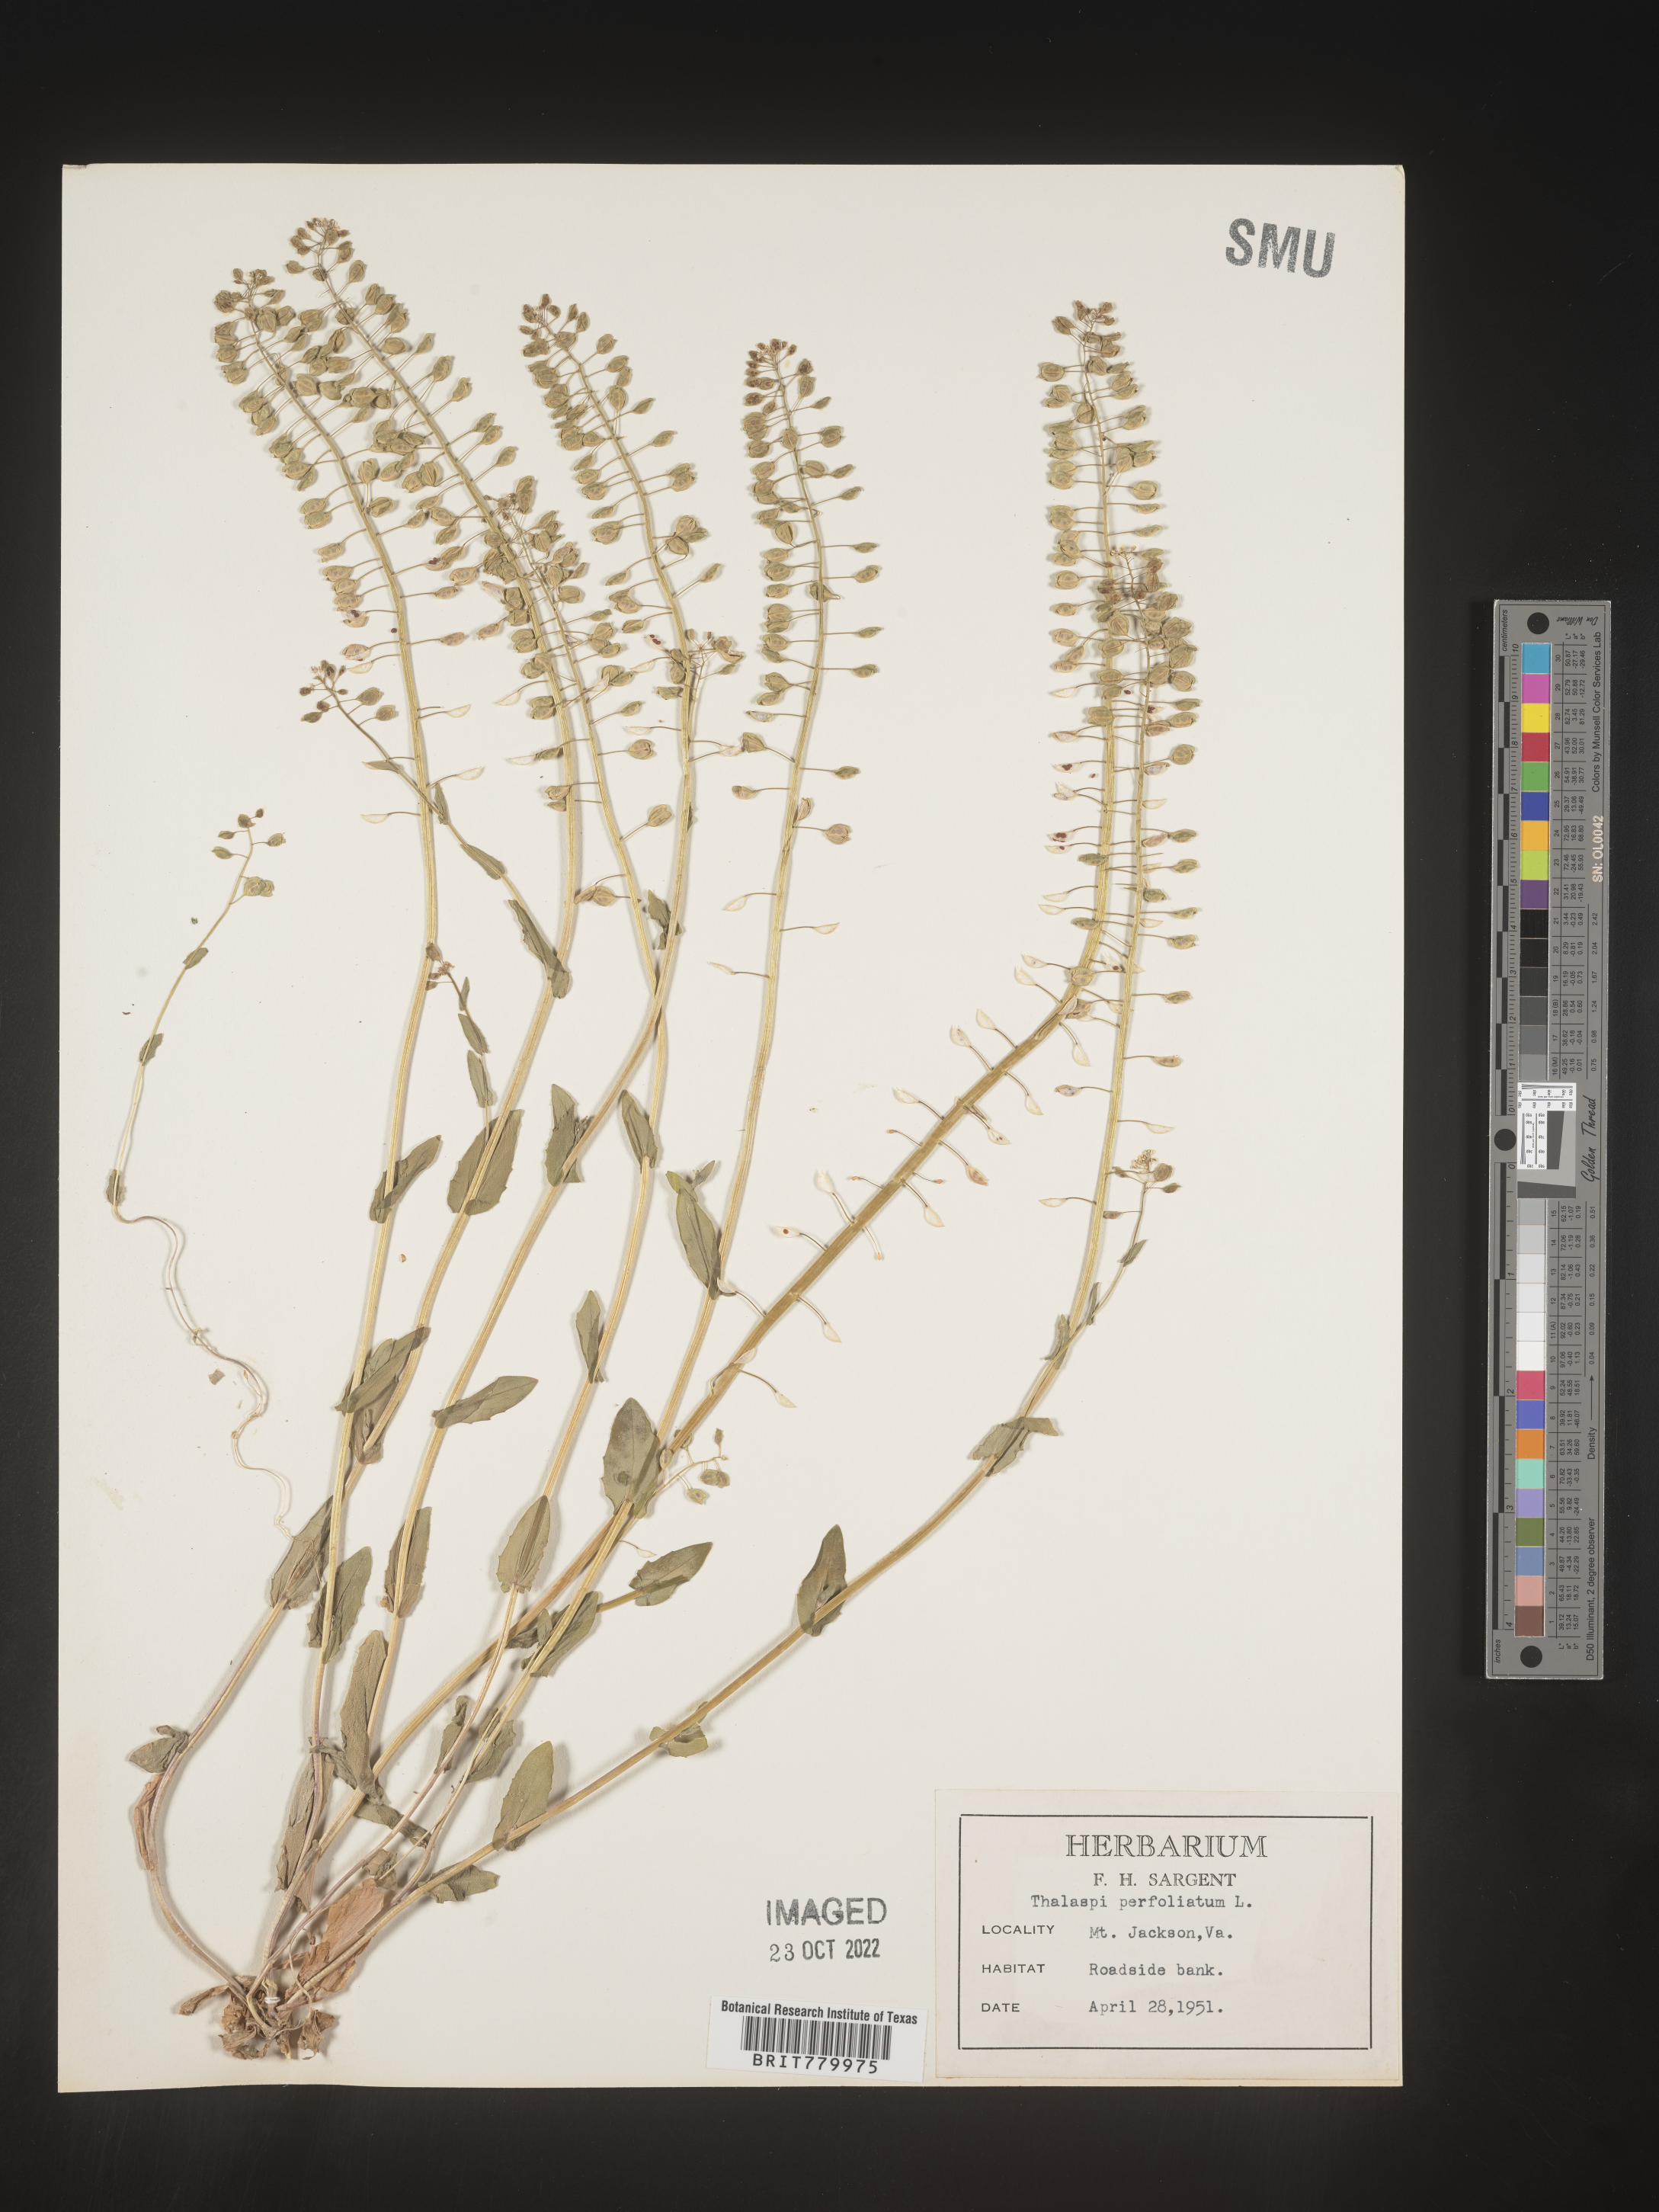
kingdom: Plantae
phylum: Tracheophyta
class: Magnoliopsida
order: Brassicales
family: Brassicaceae
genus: Thlaspi
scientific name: Thlaspi
